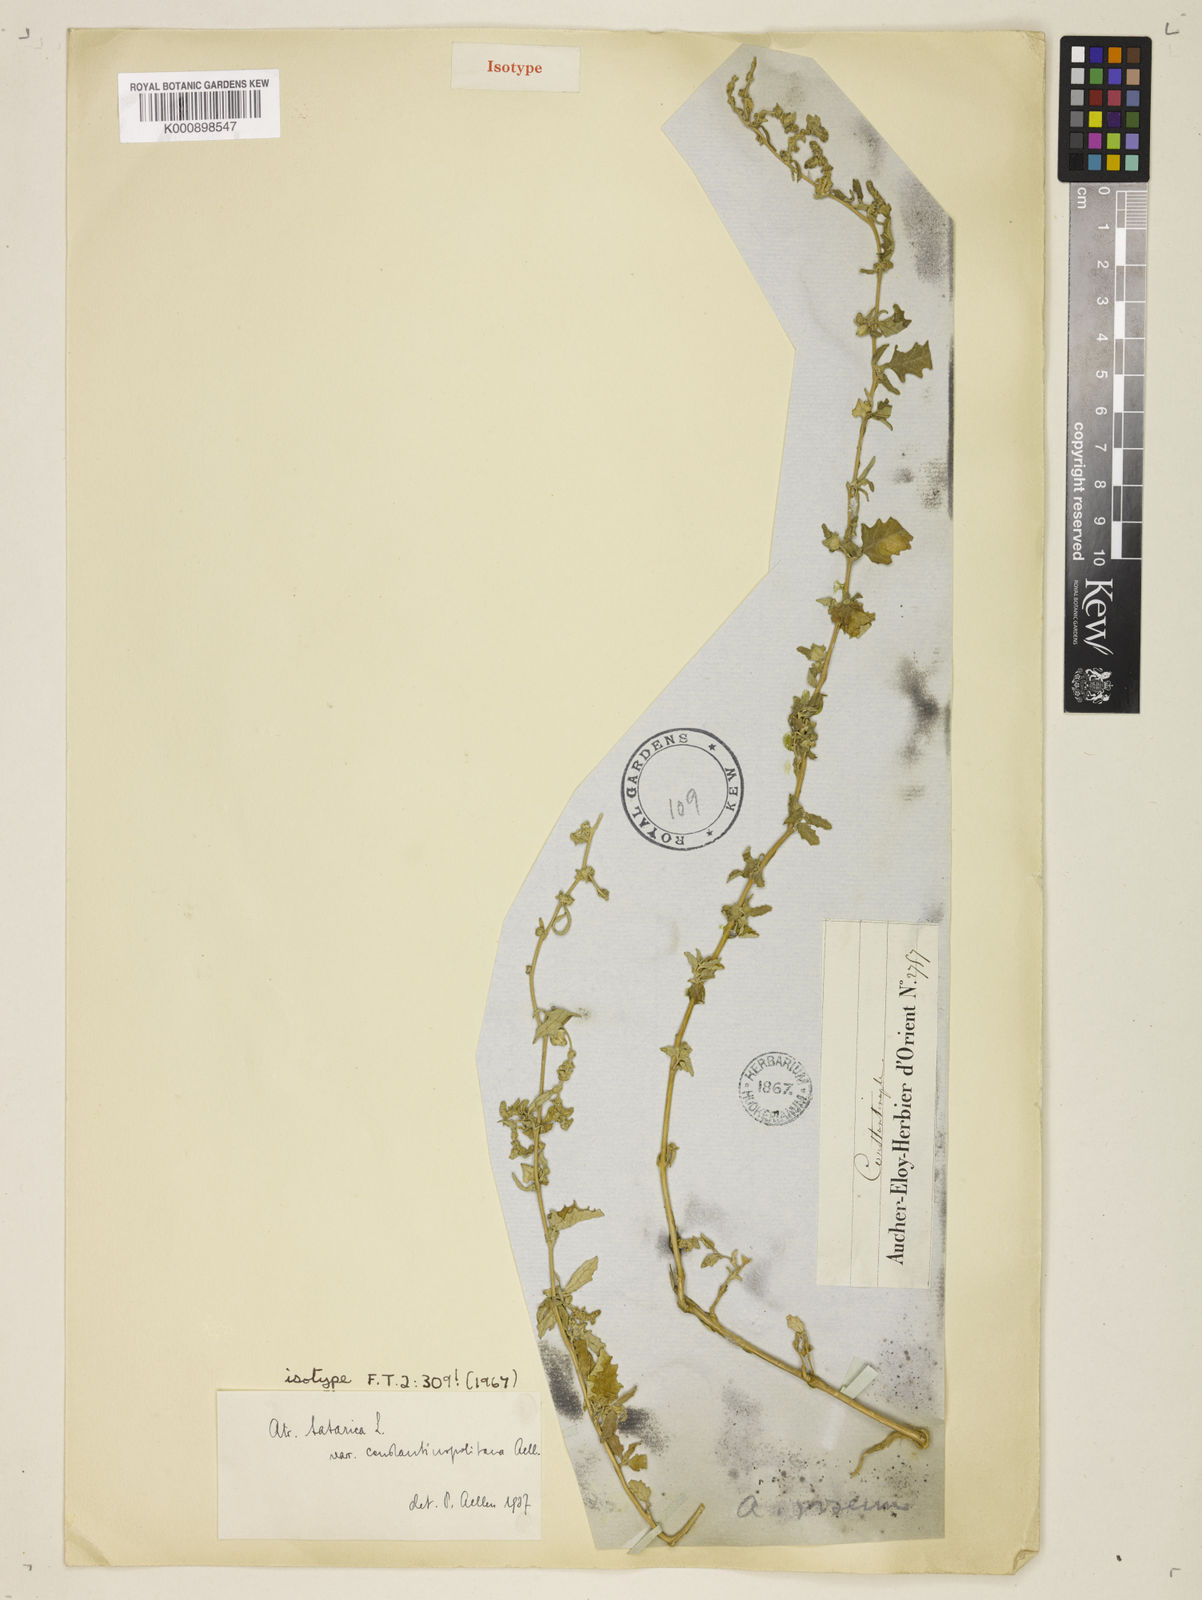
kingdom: Plantae
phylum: Tracheophyta
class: Magnoliopsida
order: Caryophyllales
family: Amaranthaceae
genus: Atriplex
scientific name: Atriplex tatarica
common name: Tatarian orache
